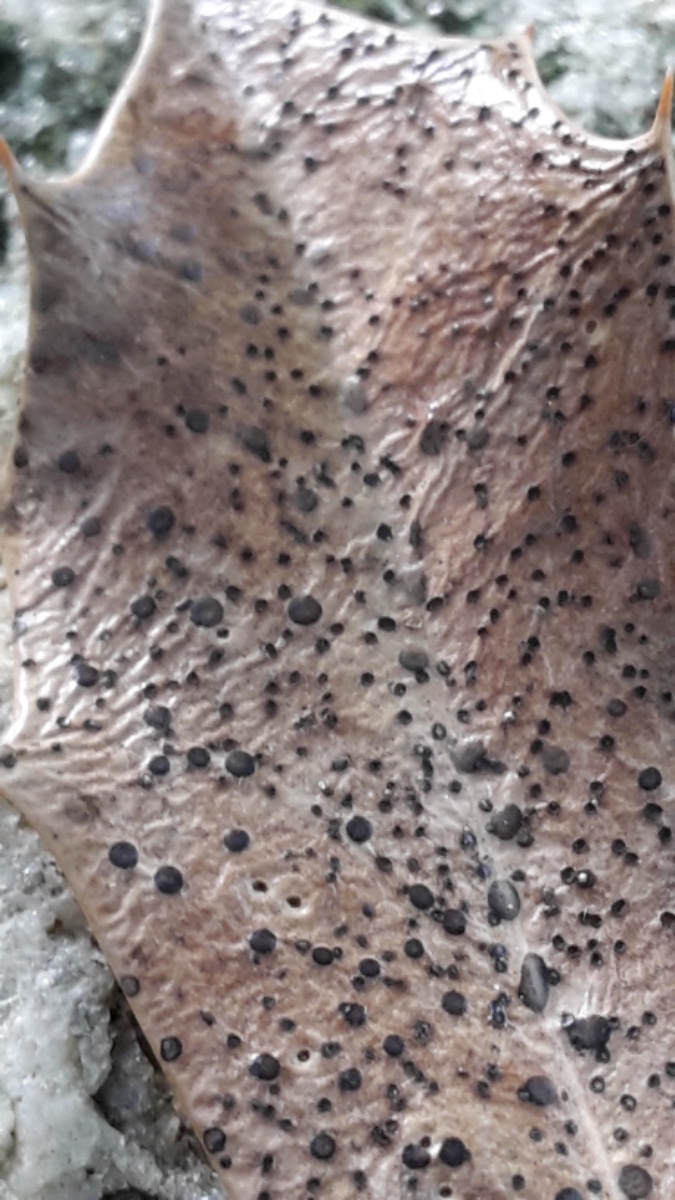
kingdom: Fungi
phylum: Ascomycota
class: Leotiomycetes
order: Helotiales
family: Cenangiaceae
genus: Trochila
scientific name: Trochila ilicina
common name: kristtorn-lågskive
